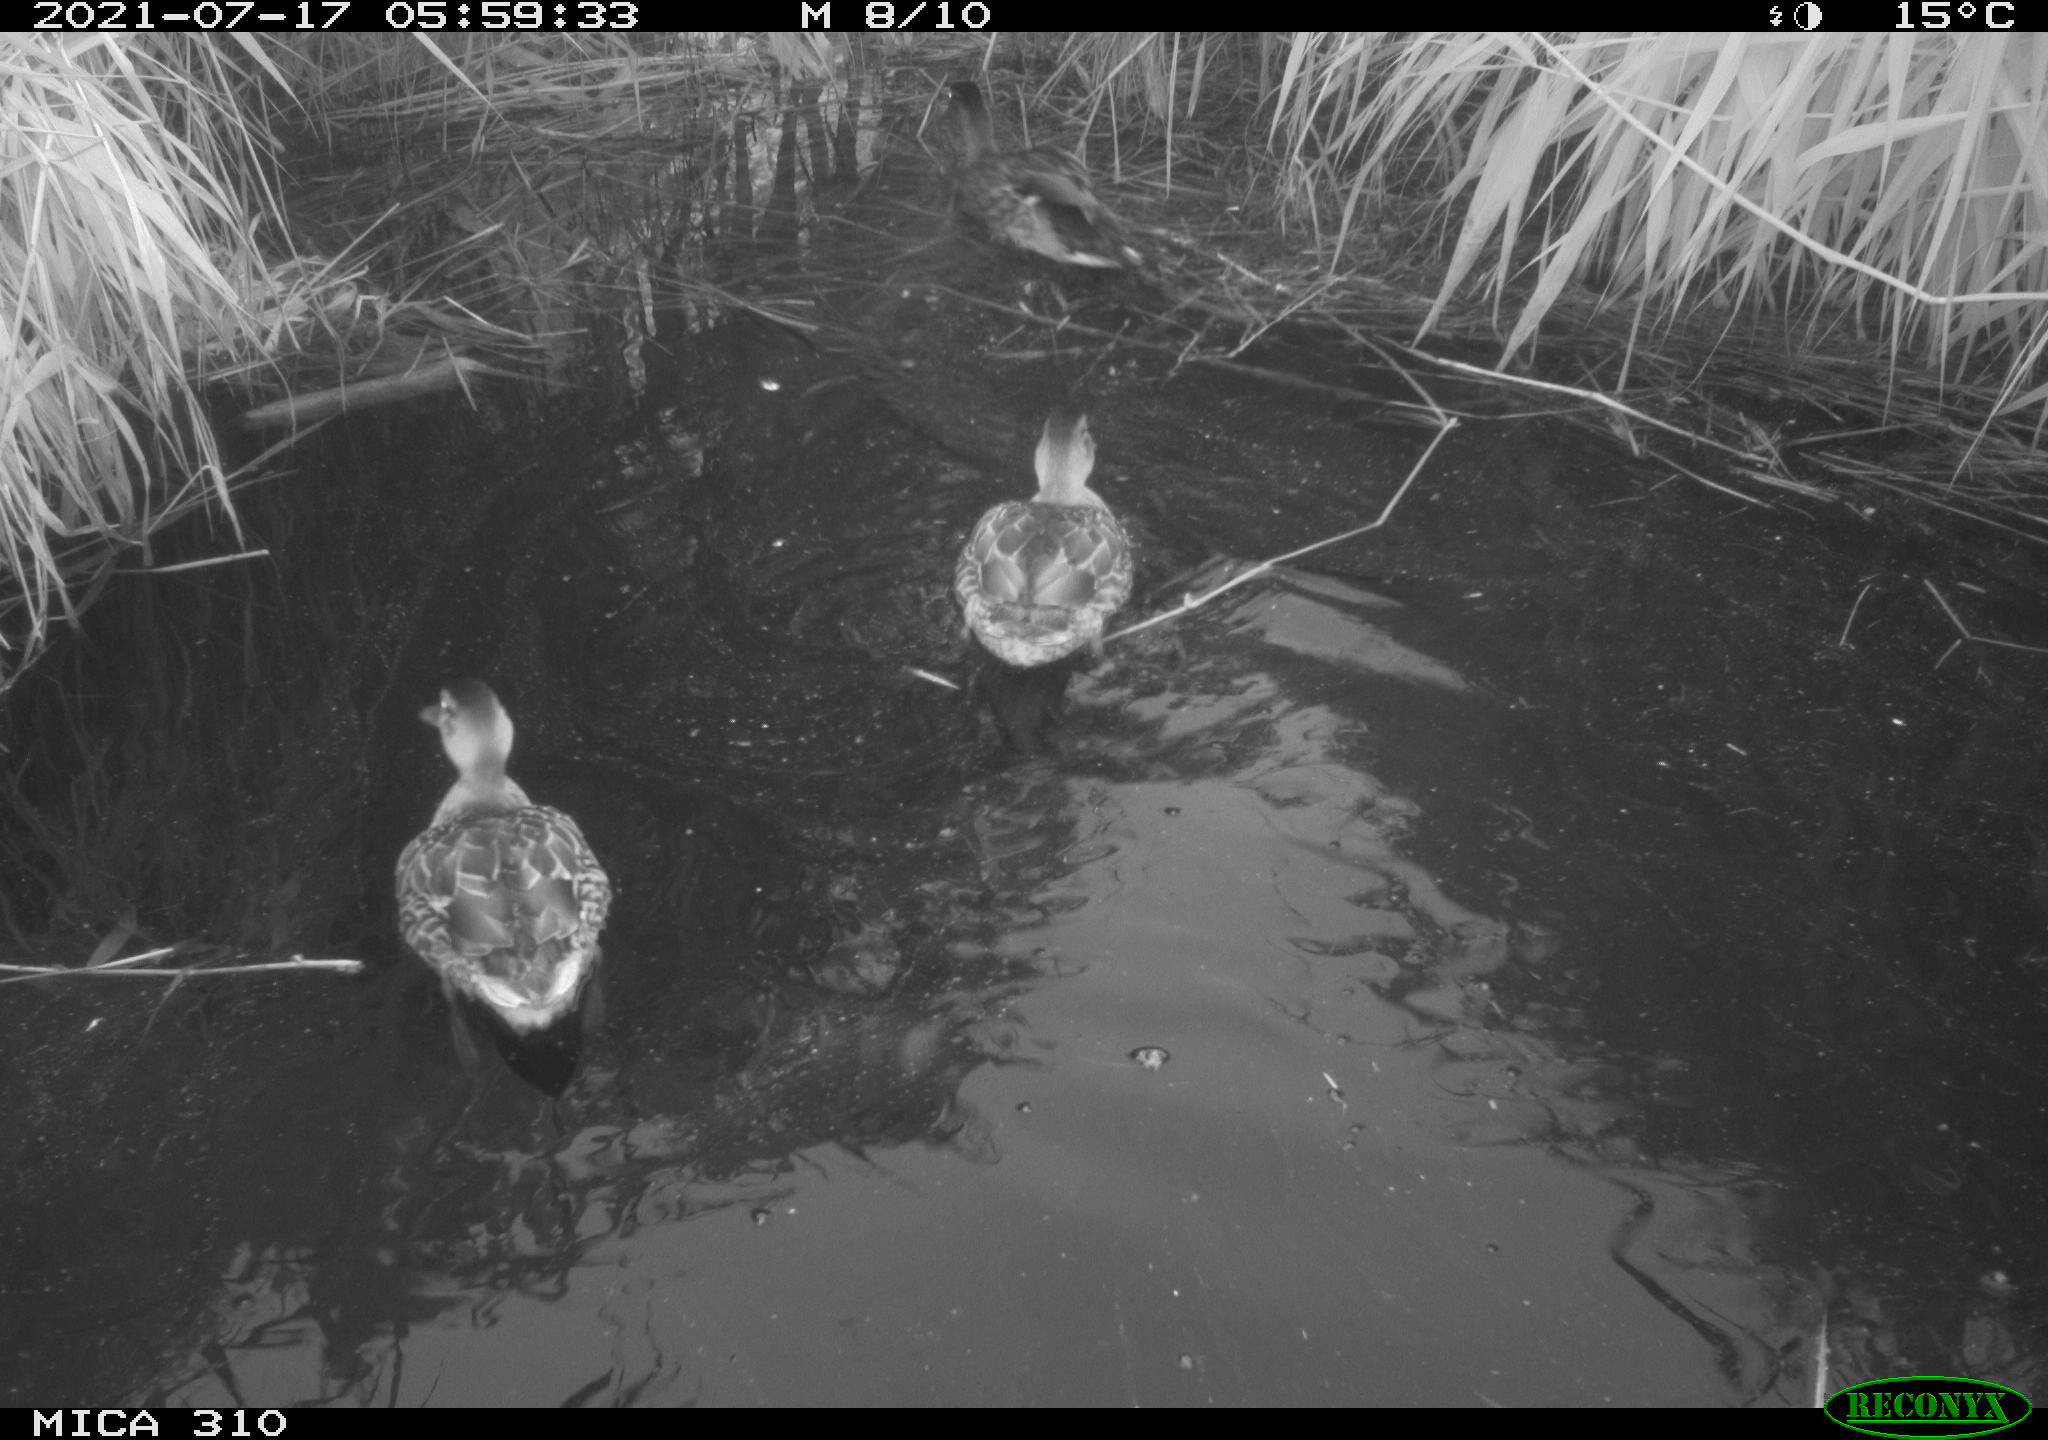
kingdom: Animalia
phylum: Chordata
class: Aves
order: Anseriformes
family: Anatidae
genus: Mareca
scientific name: Mareca strepera
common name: Gadwall
